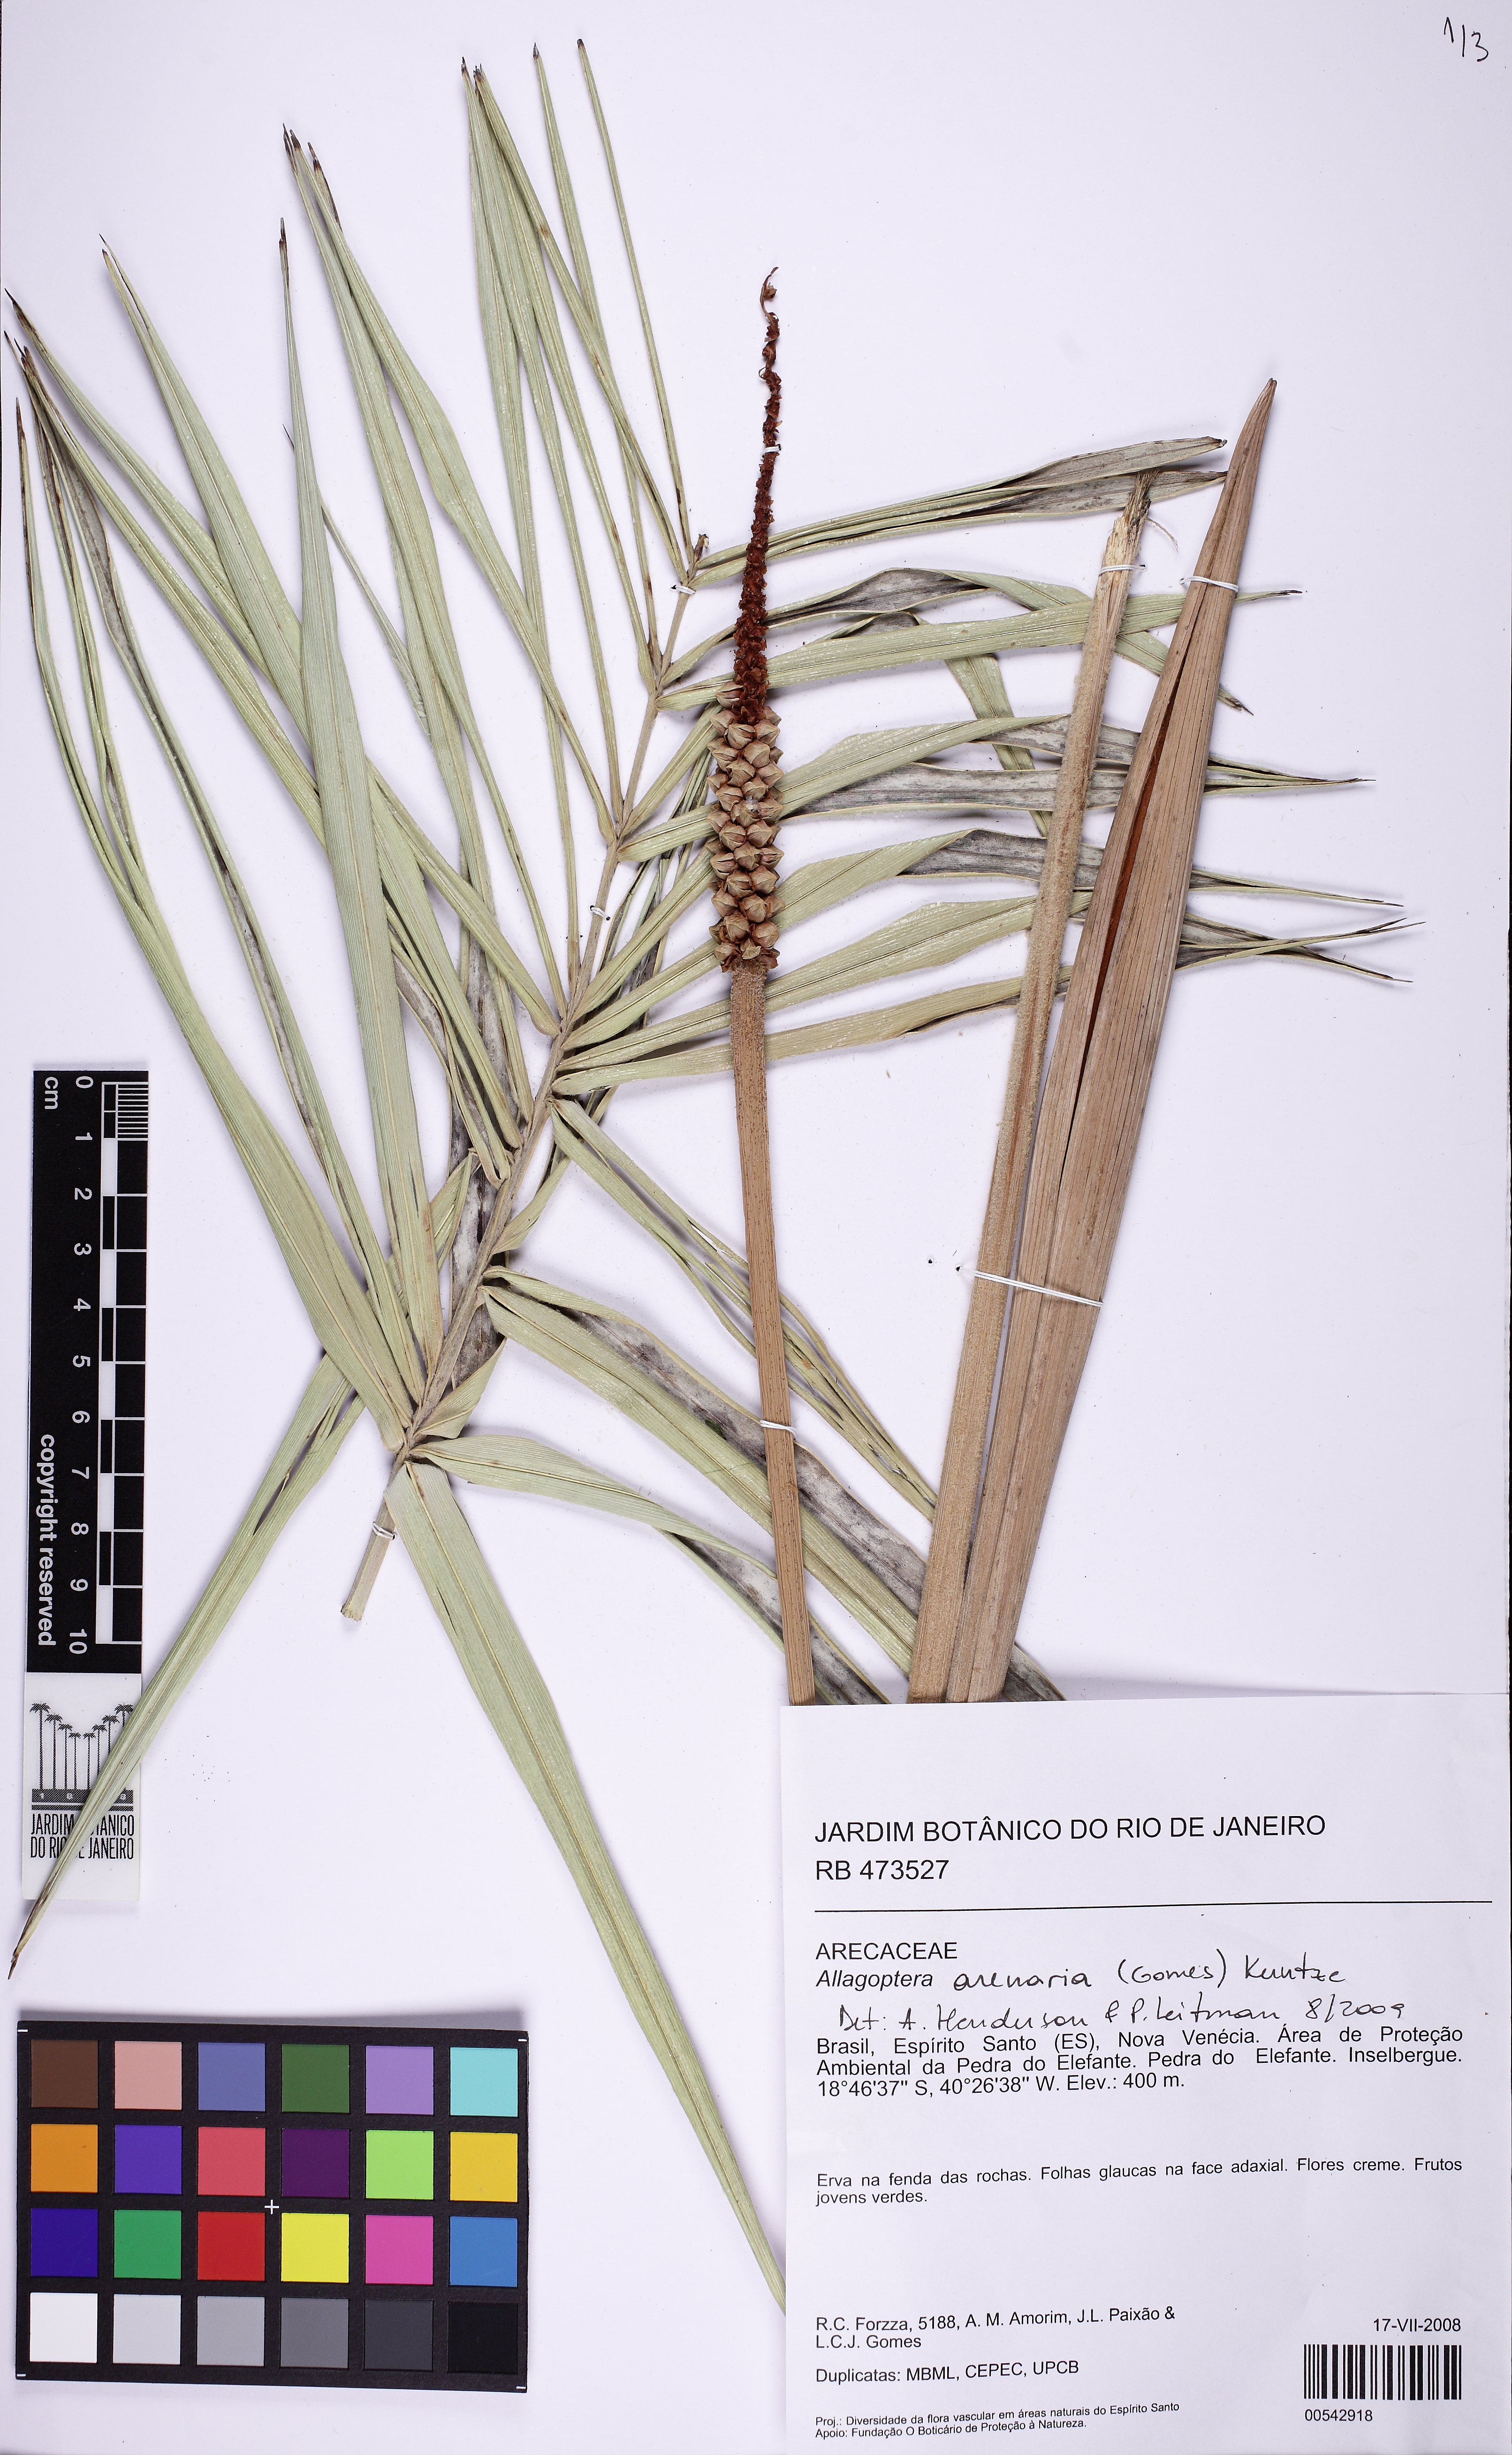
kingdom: Plantae
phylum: Tracheophyta
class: Liliopsida
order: Arecales
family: Arecaceae
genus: Allagoptera
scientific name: Allagoptera arenaria
